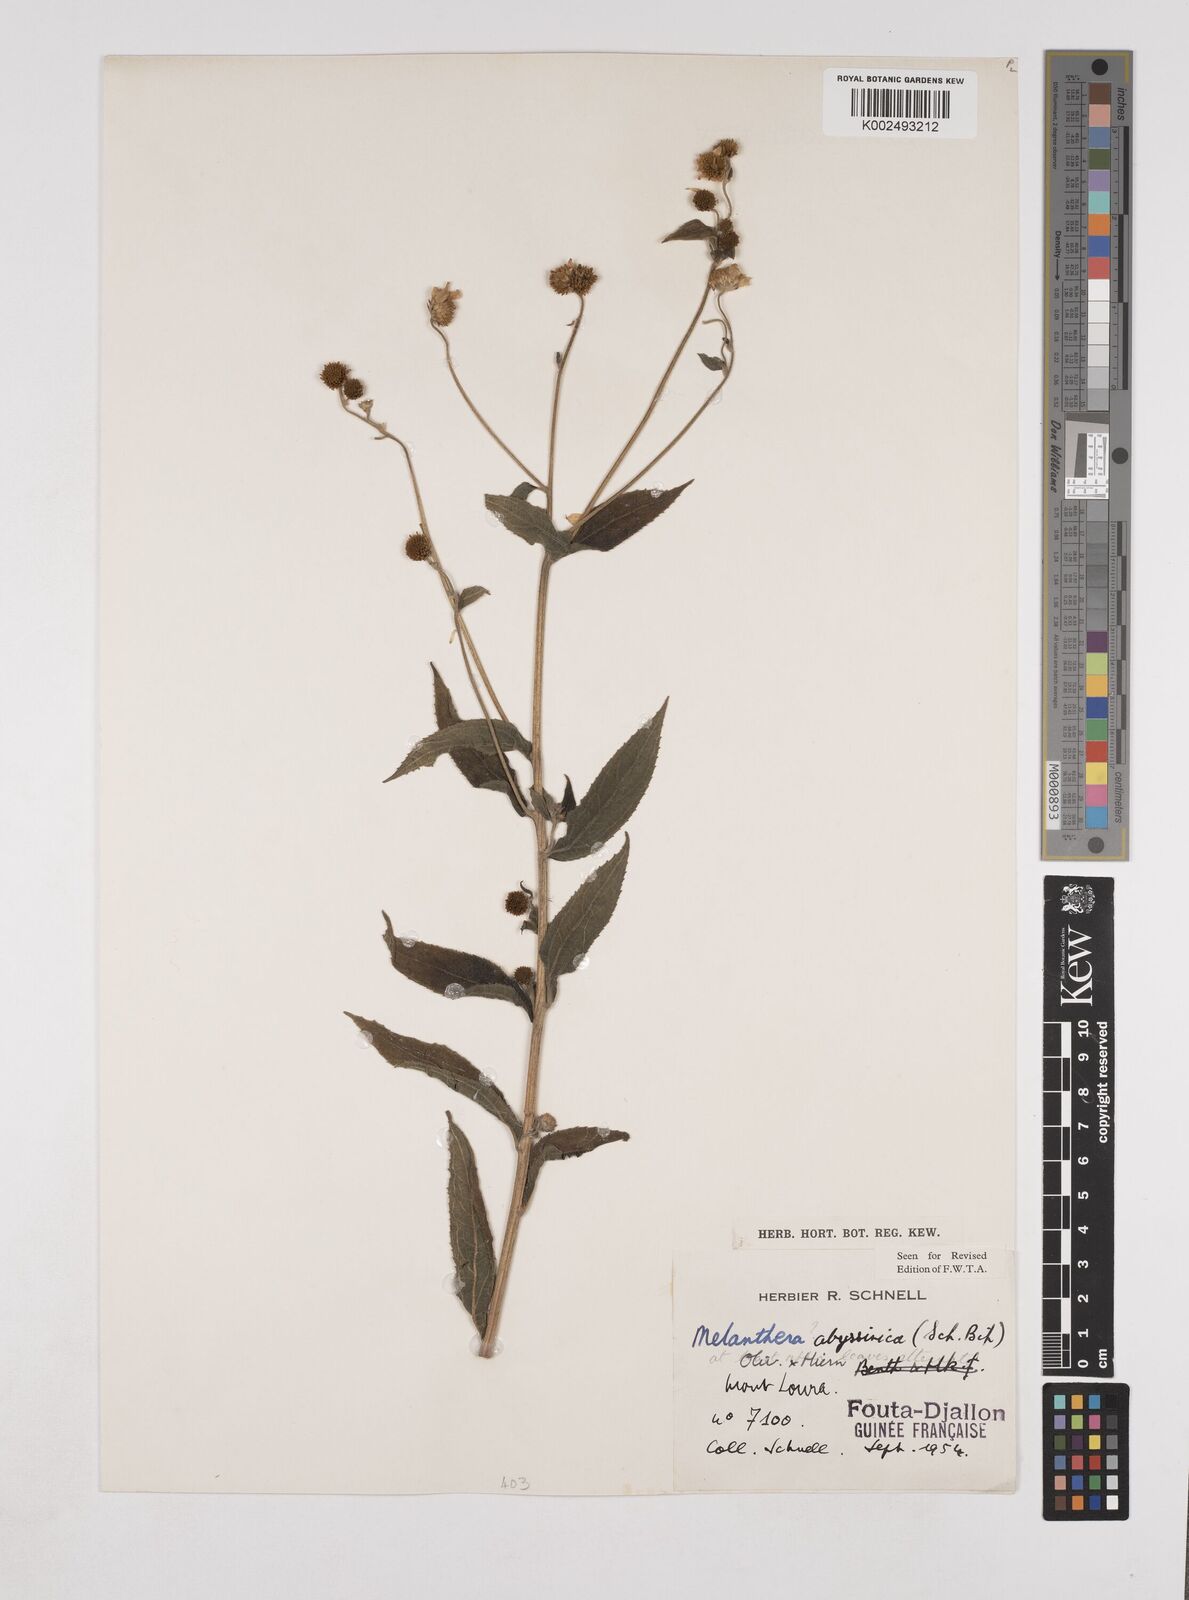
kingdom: Plantae
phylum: Tracheophyta
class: Magnoliopsida
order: Asterales
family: Asteraceae
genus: Lipotriche
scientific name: Lipotriche abyssinica
